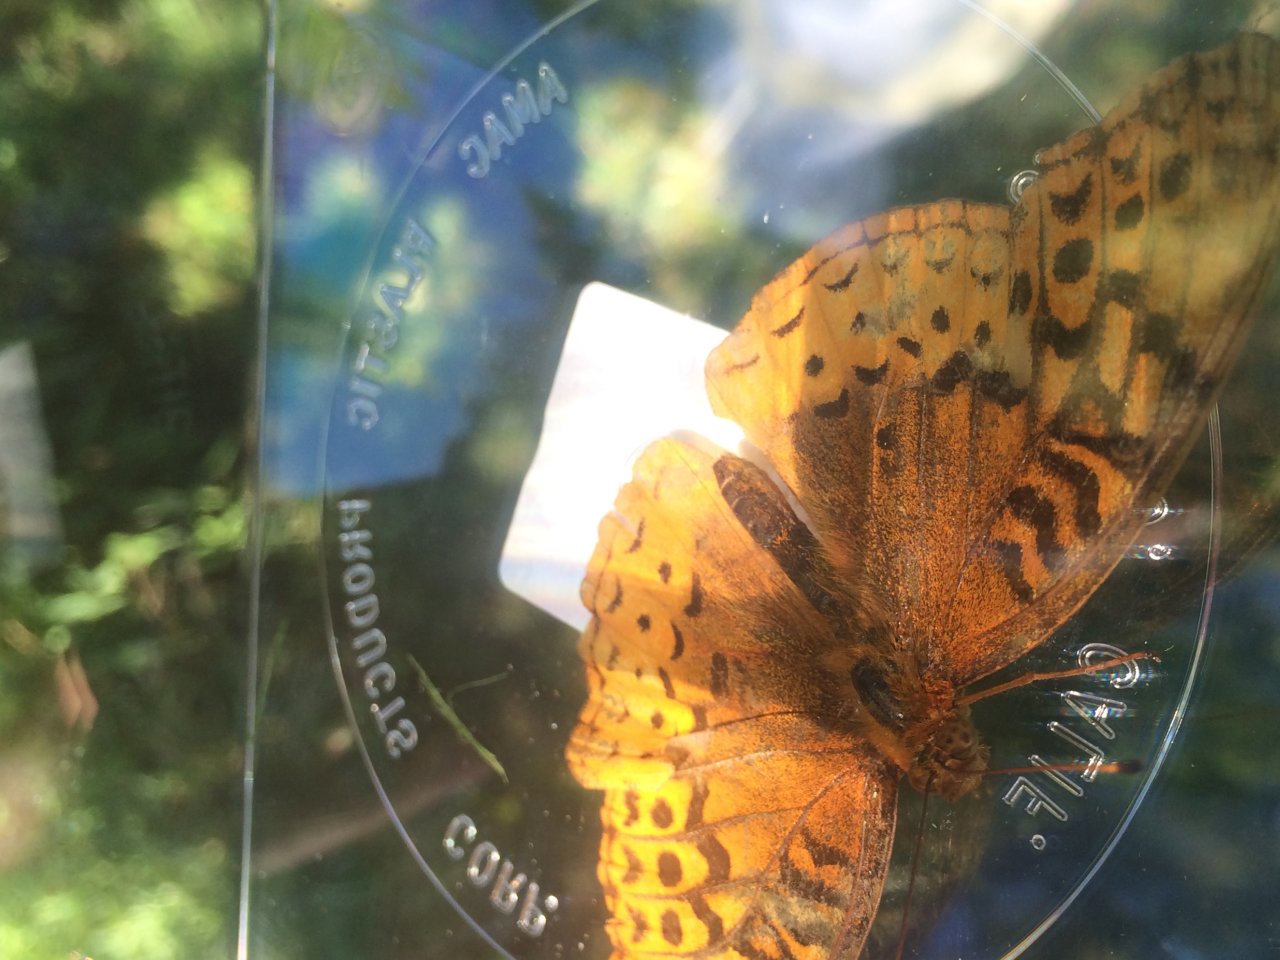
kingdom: Animalia
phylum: Arthropoda
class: Insecta
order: Lepidoptera
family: Nymphalidae
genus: Speyeria
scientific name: Speyeria cybele
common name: Great Spangled Fritillary
